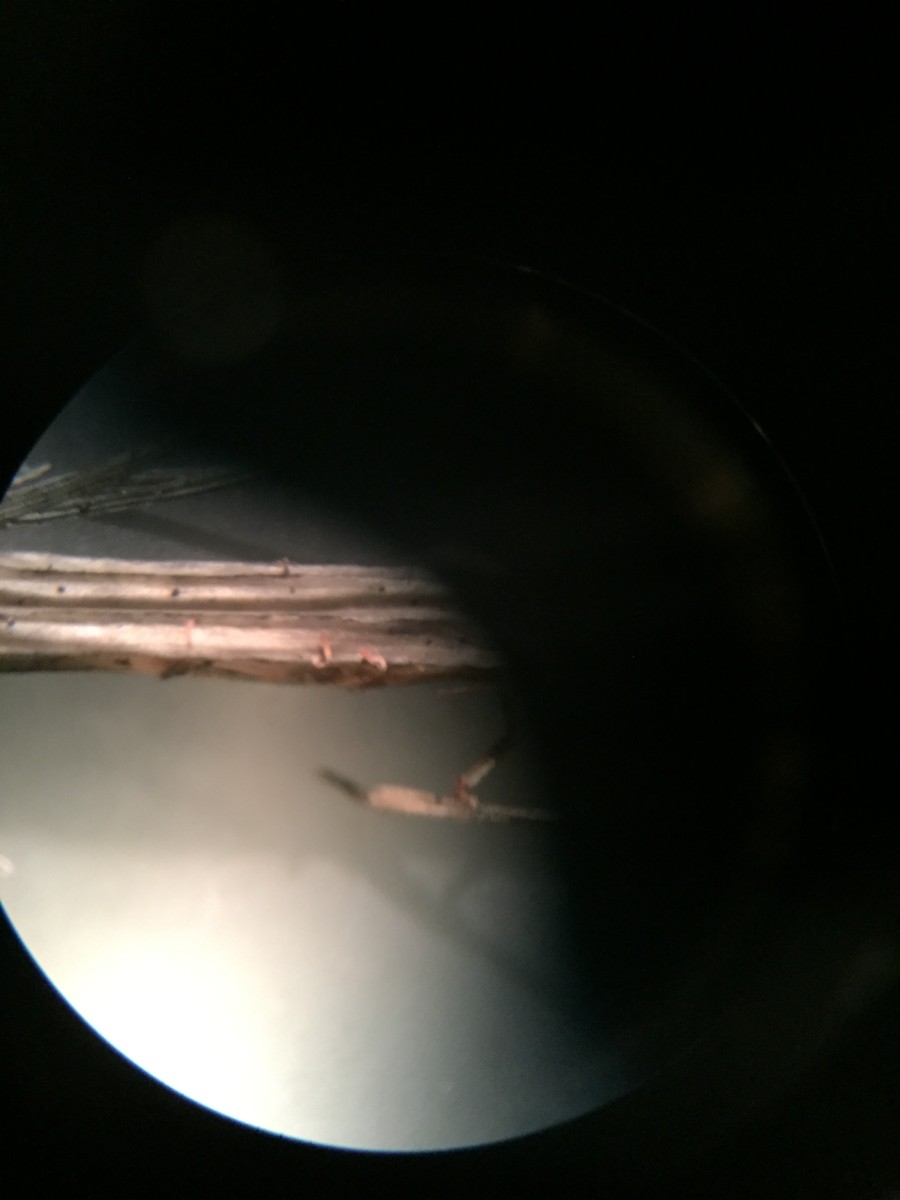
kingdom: Fungi
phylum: Basidiomycota
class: Agaricomycetes
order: Agaricales
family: Typhulaceae
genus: Typhula
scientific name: Typhula micans
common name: lyserød trådkølle
